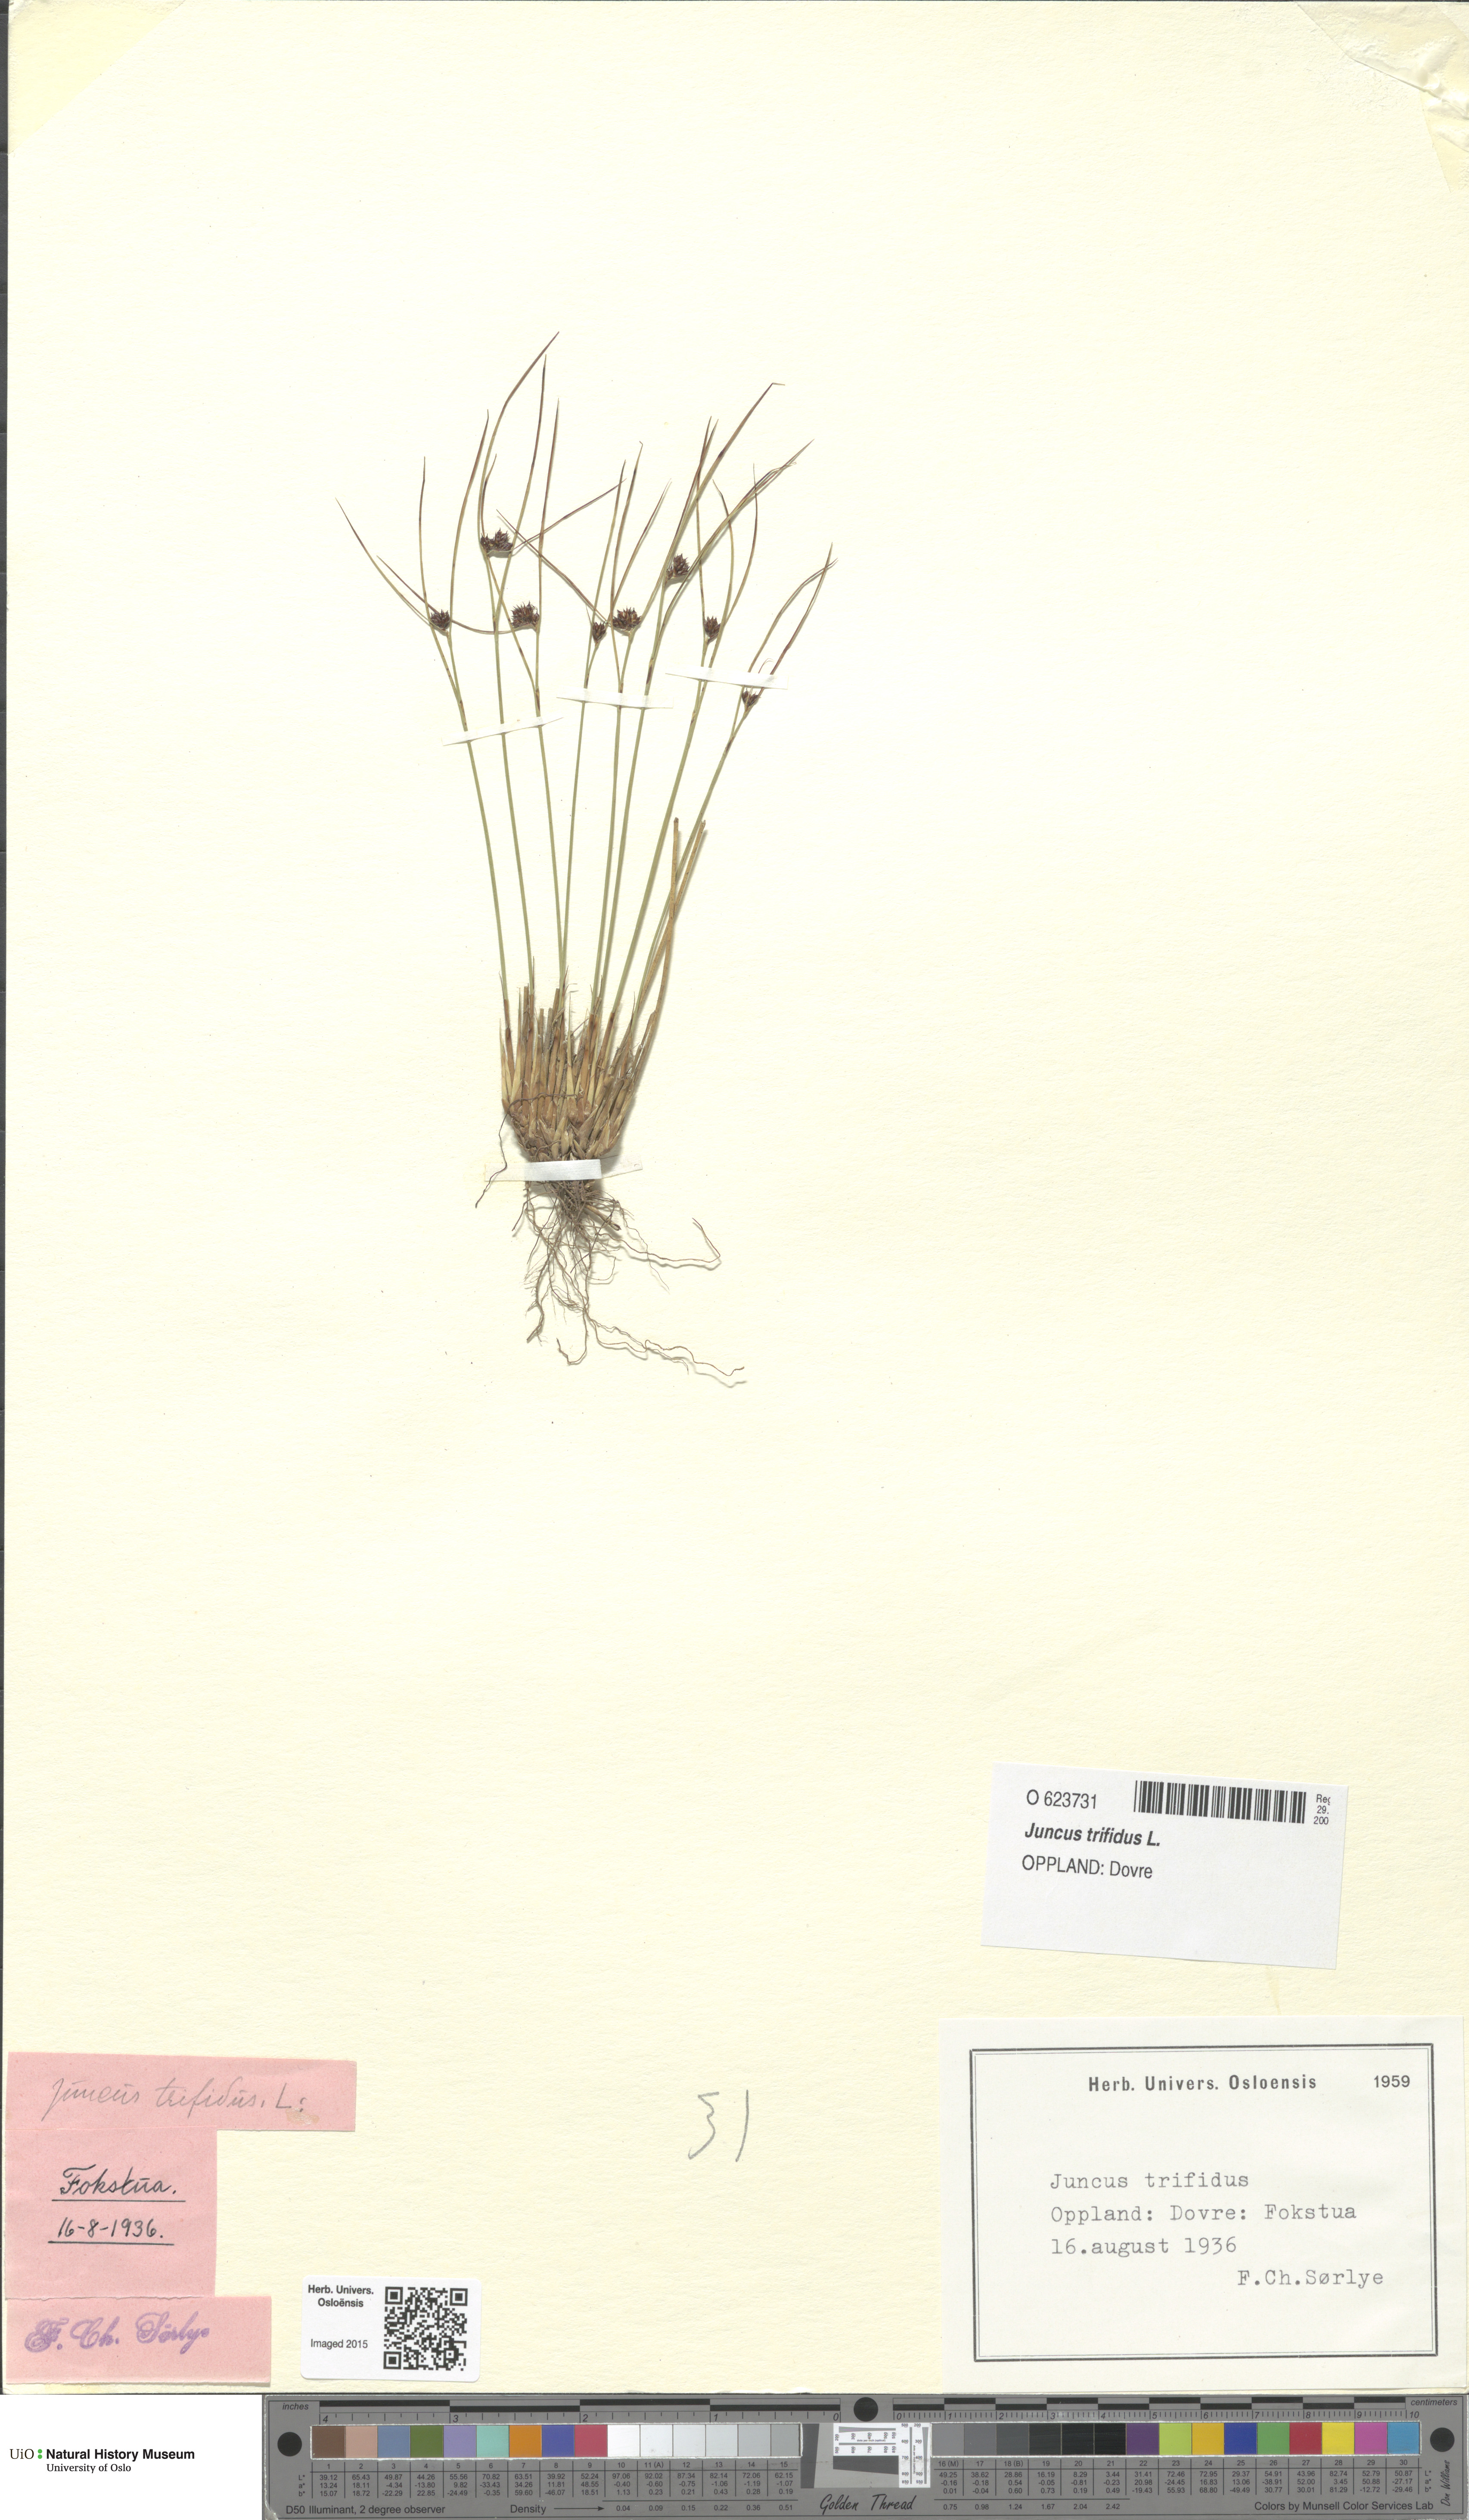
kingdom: Plantae
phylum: Tracheophyta
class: Liliopsida
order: Poales
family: Juncaceae
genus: Oreojuncus
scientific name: Oreojuncus trifidus
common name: Highland rush
